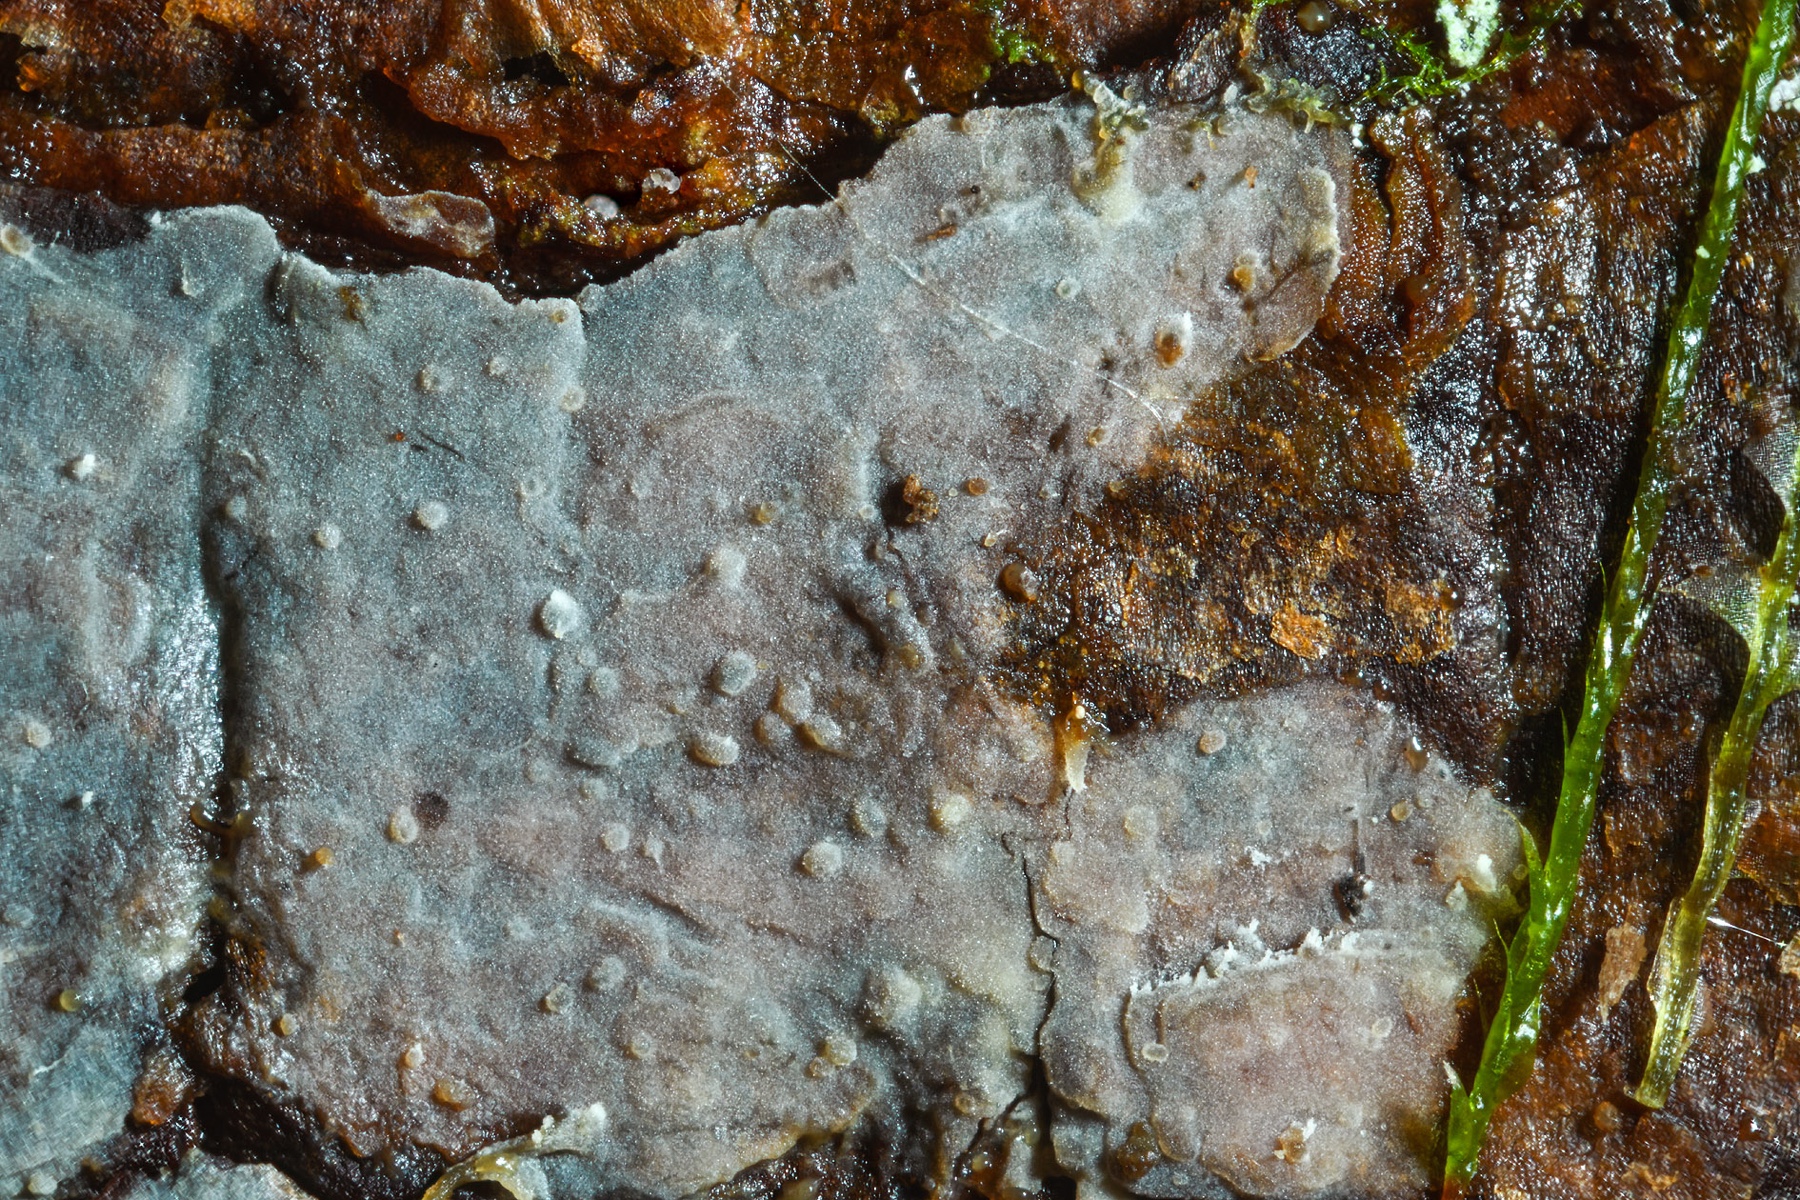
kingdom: Fungi
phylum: Basidiomycota
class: Agaricomycetes
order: Agaricales
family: Radulomycetaceae
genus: Aphanobasidium
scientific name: Aphanobasidium pseudotsugae
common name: tynd naftalinskind
